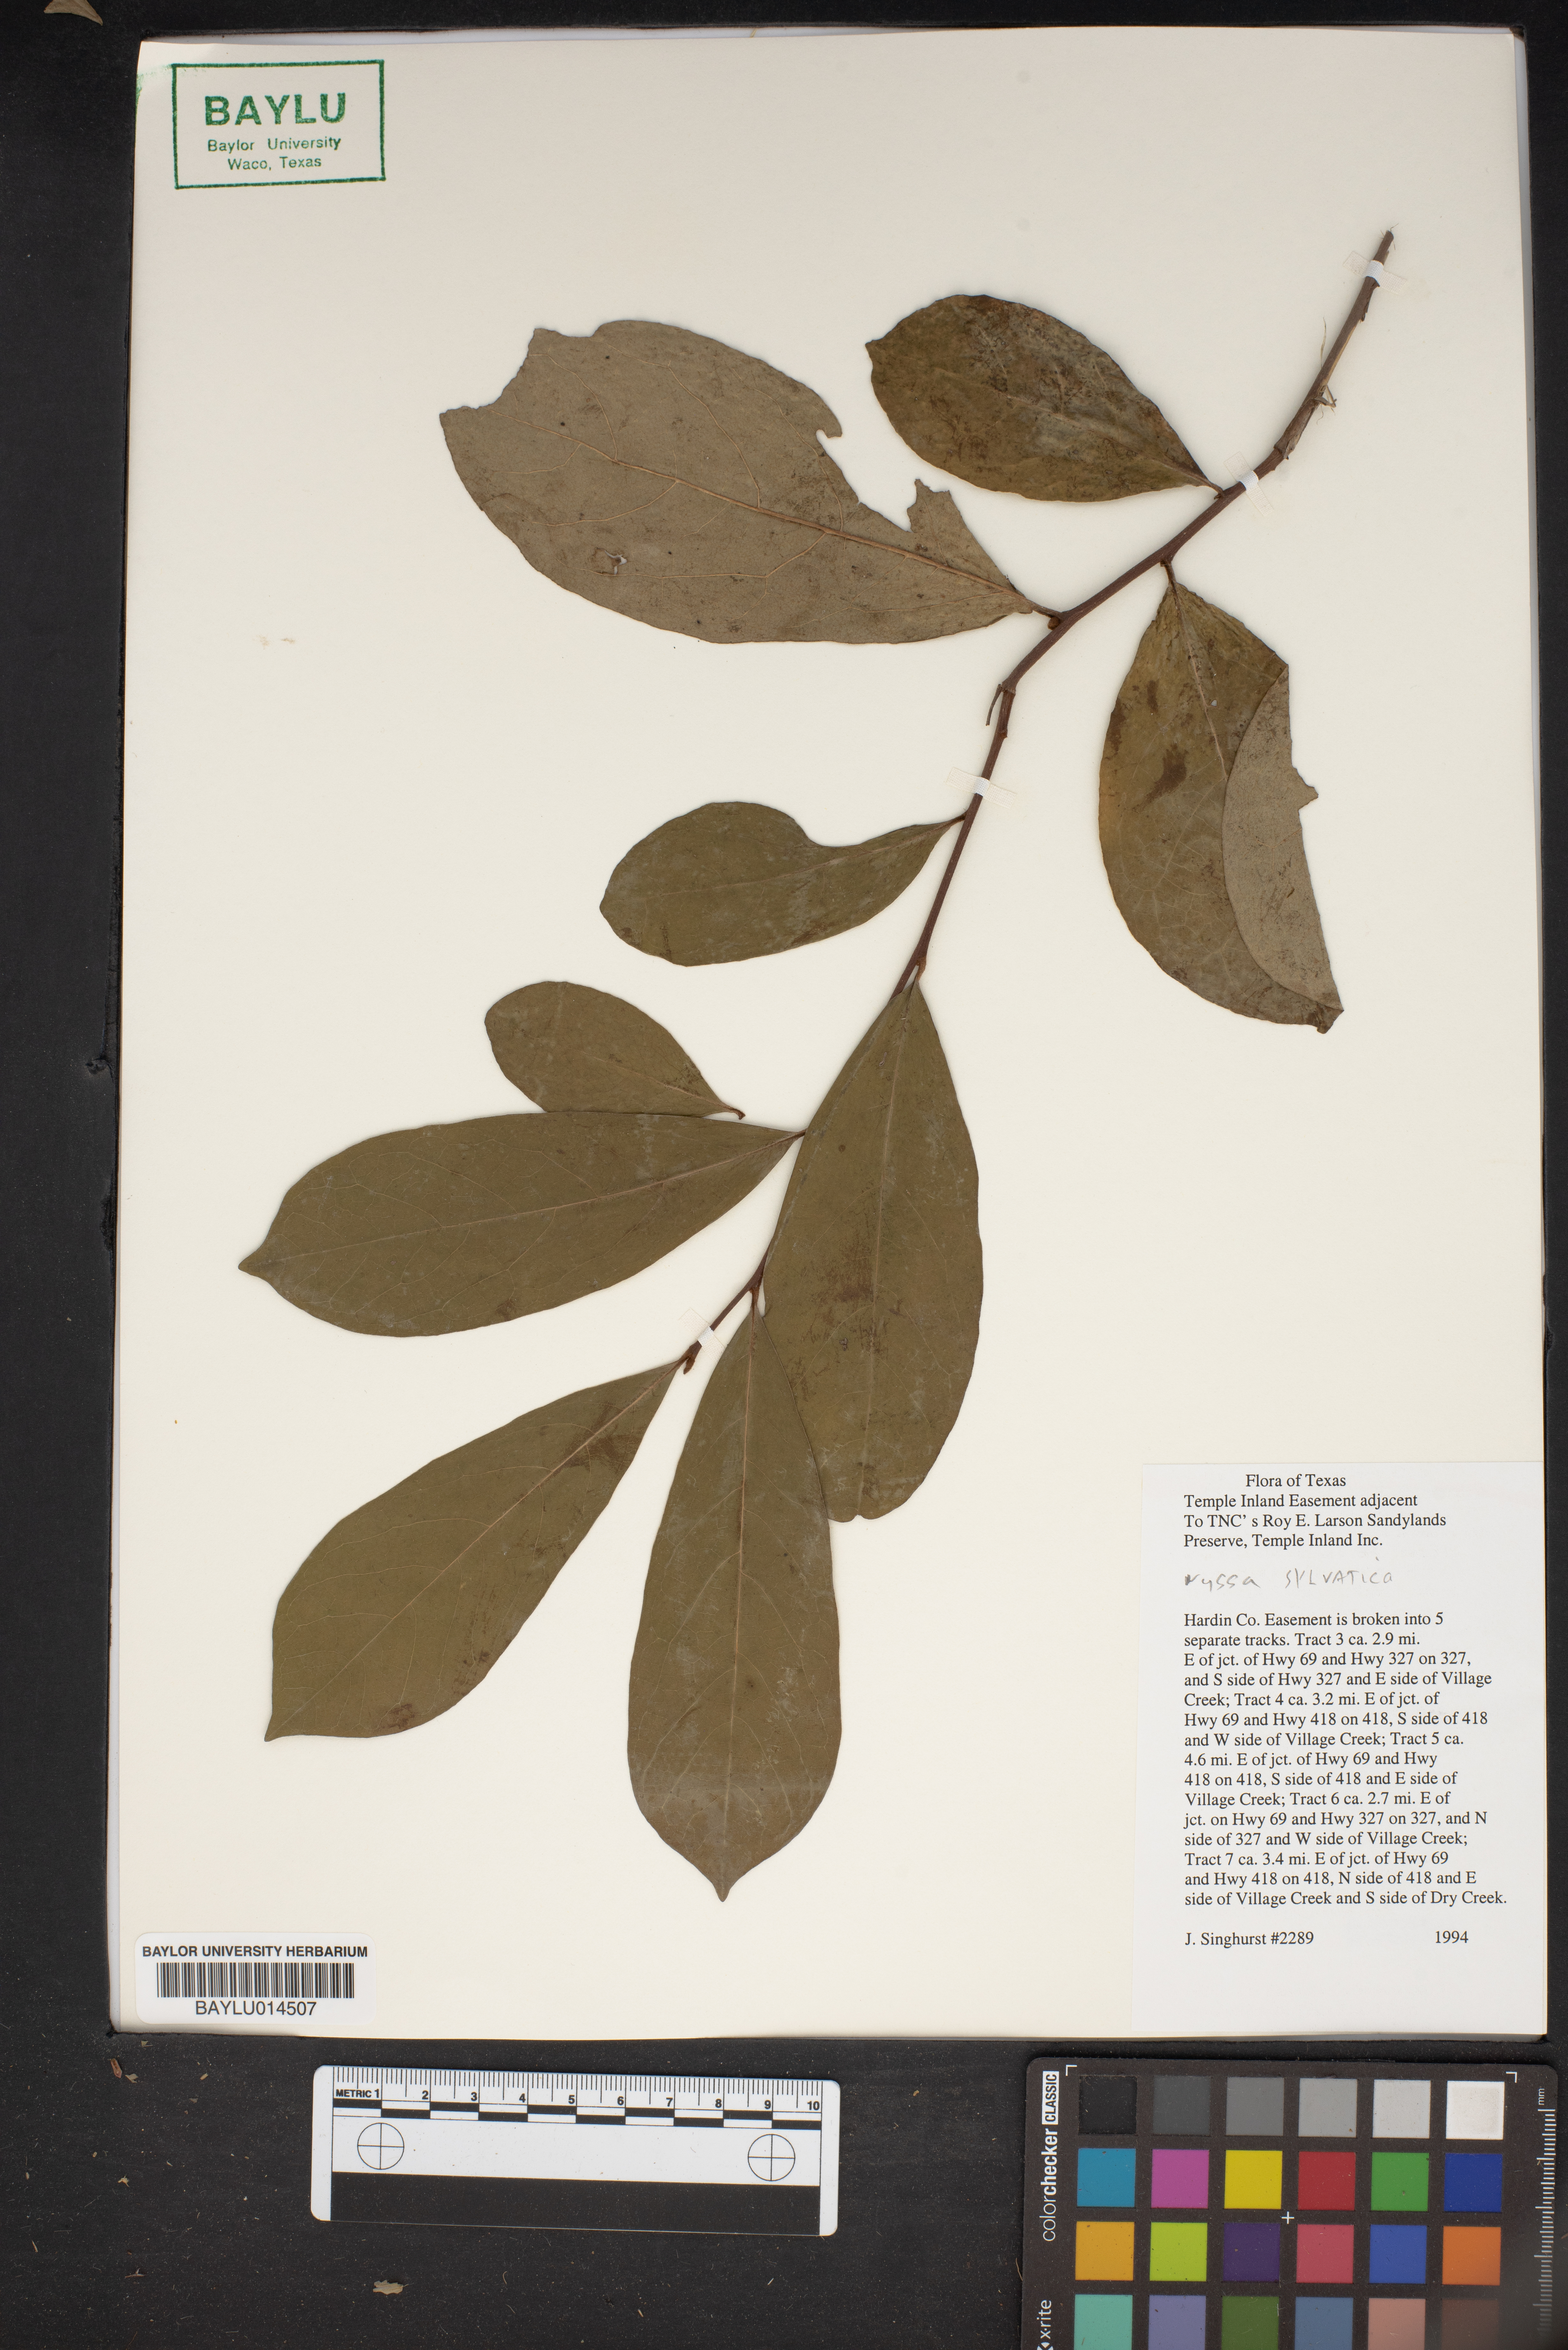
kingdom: Plantae
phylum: Tracheophyta
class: Magnoliopsida
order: Cornales
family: Nyssaceae
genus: Nyssa
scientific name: Nyssa sylvatica
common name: Black tupelo
